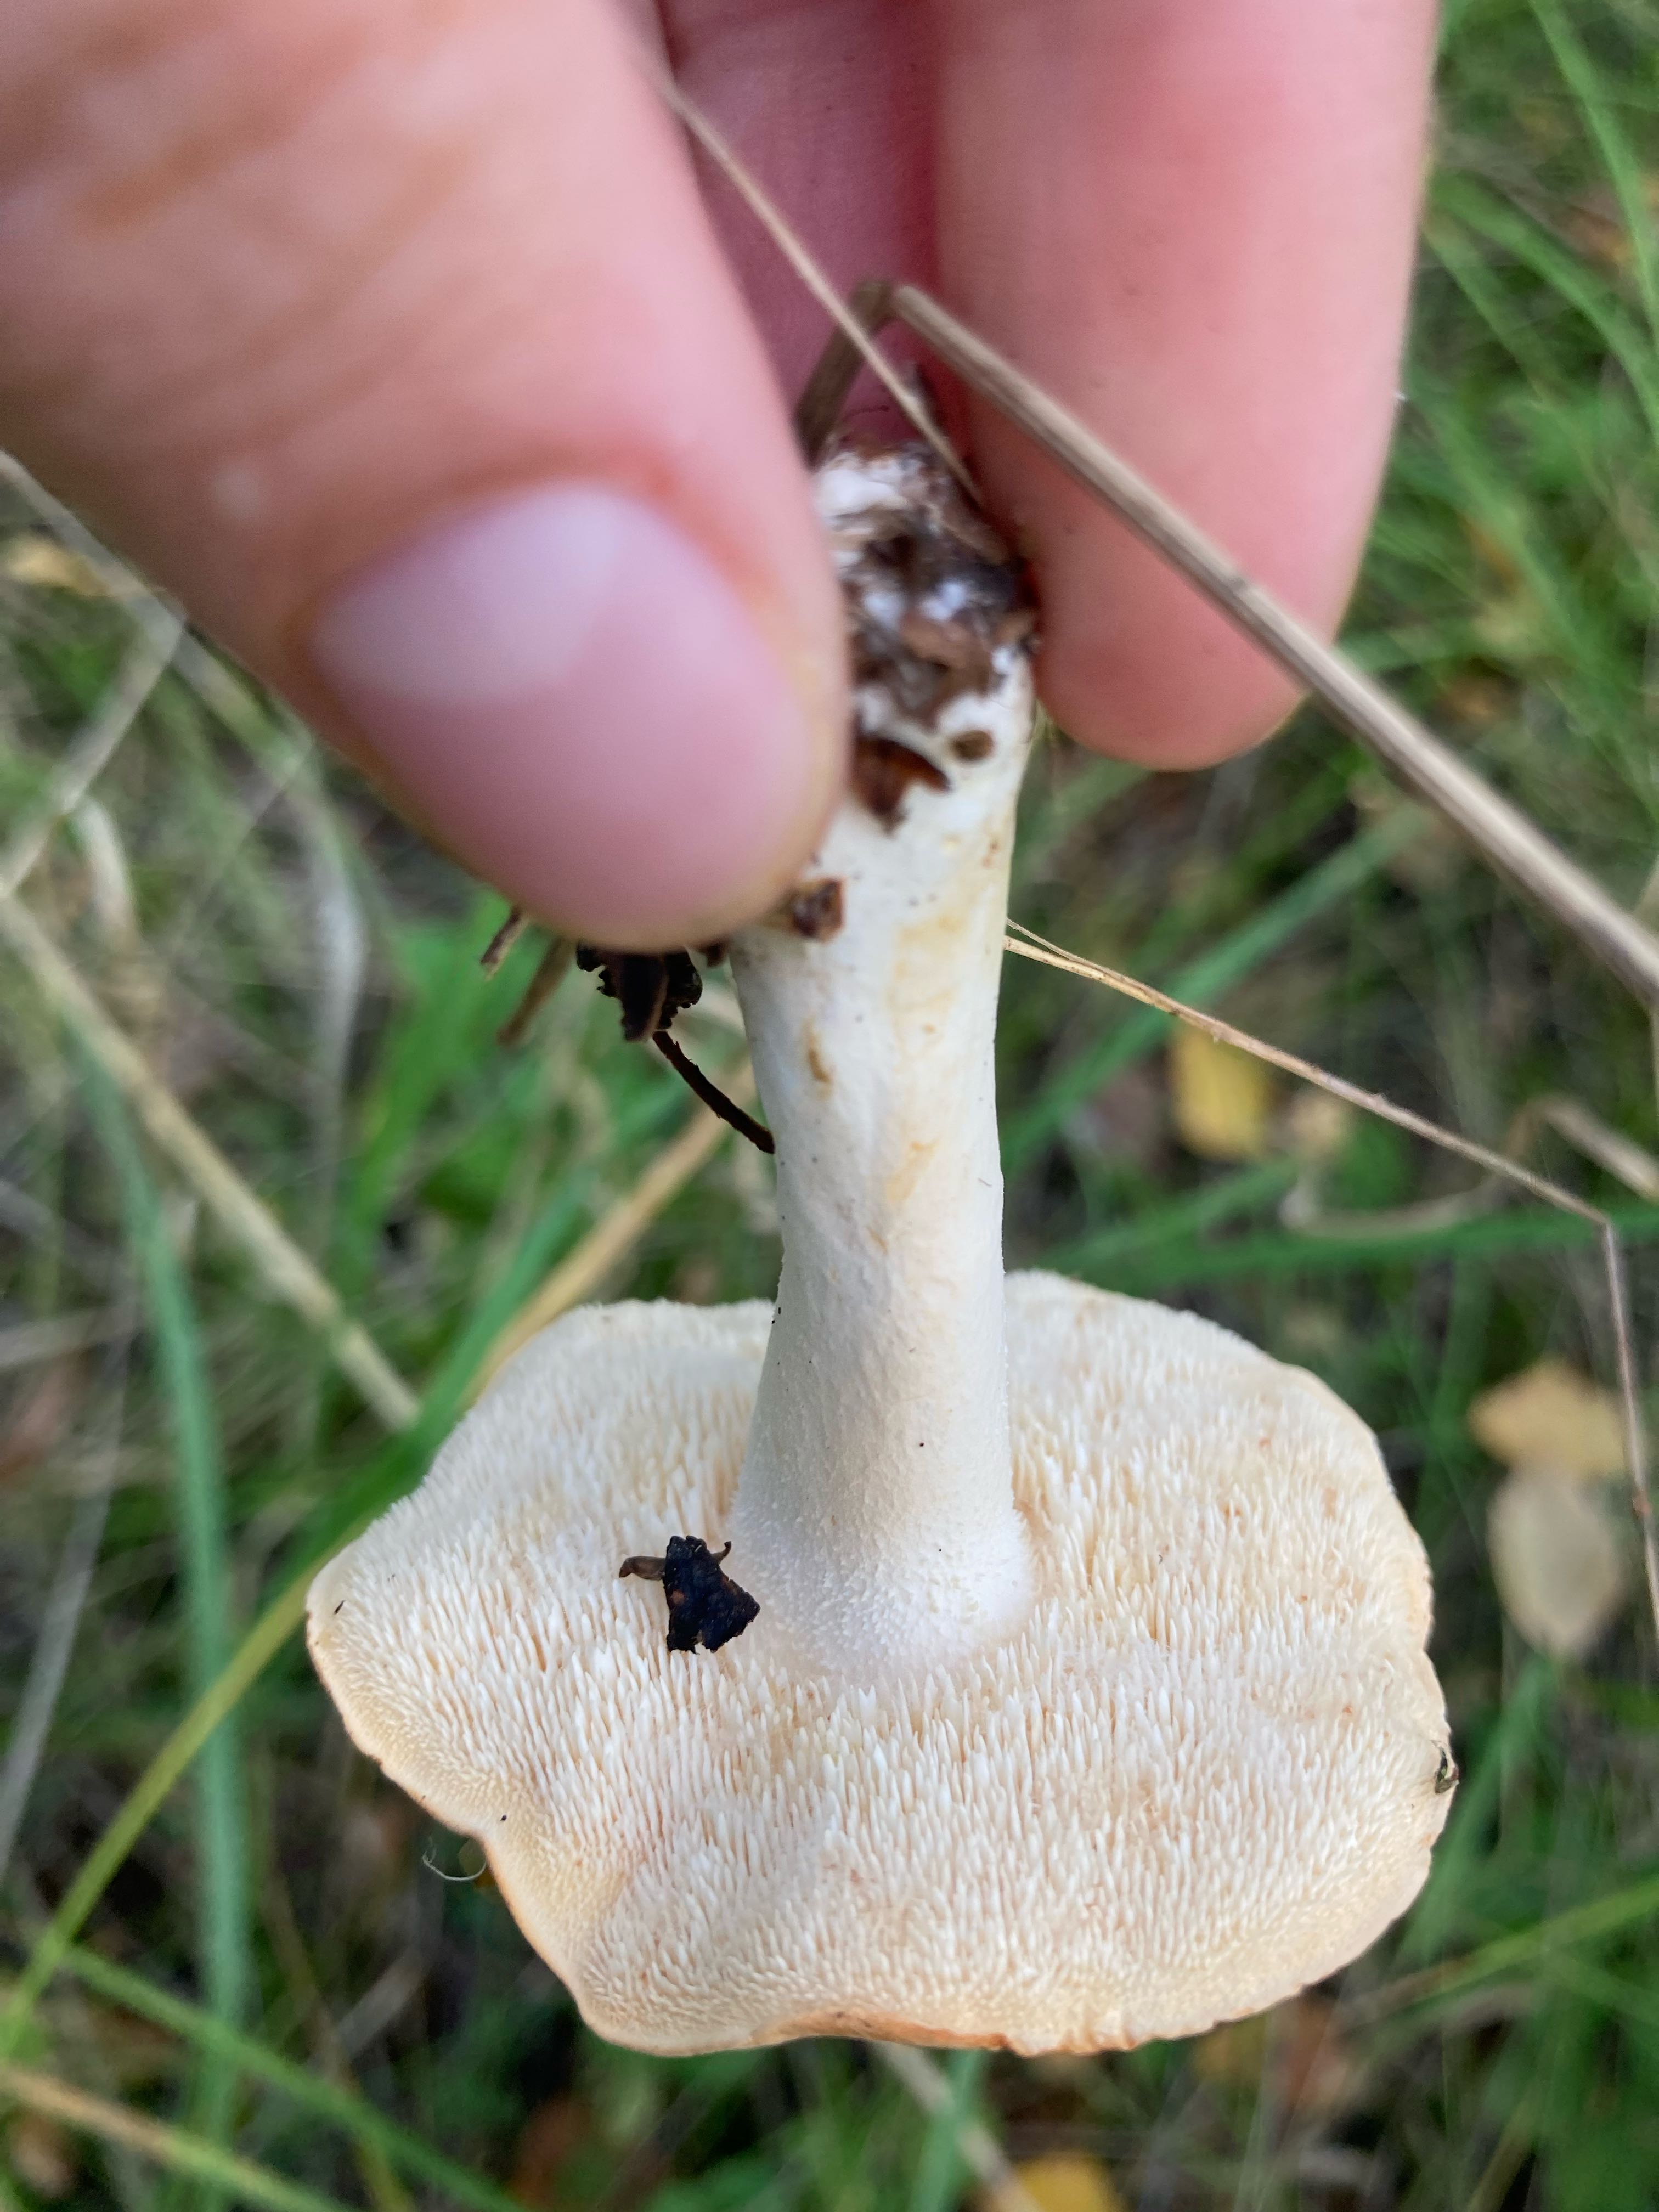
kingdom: Fungi
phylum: Basidiomycota
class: Agaricomycetes
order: Cantharellales
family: Hydnaceae
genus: Hydnum
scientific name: Hydnum
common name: pigsvamp
